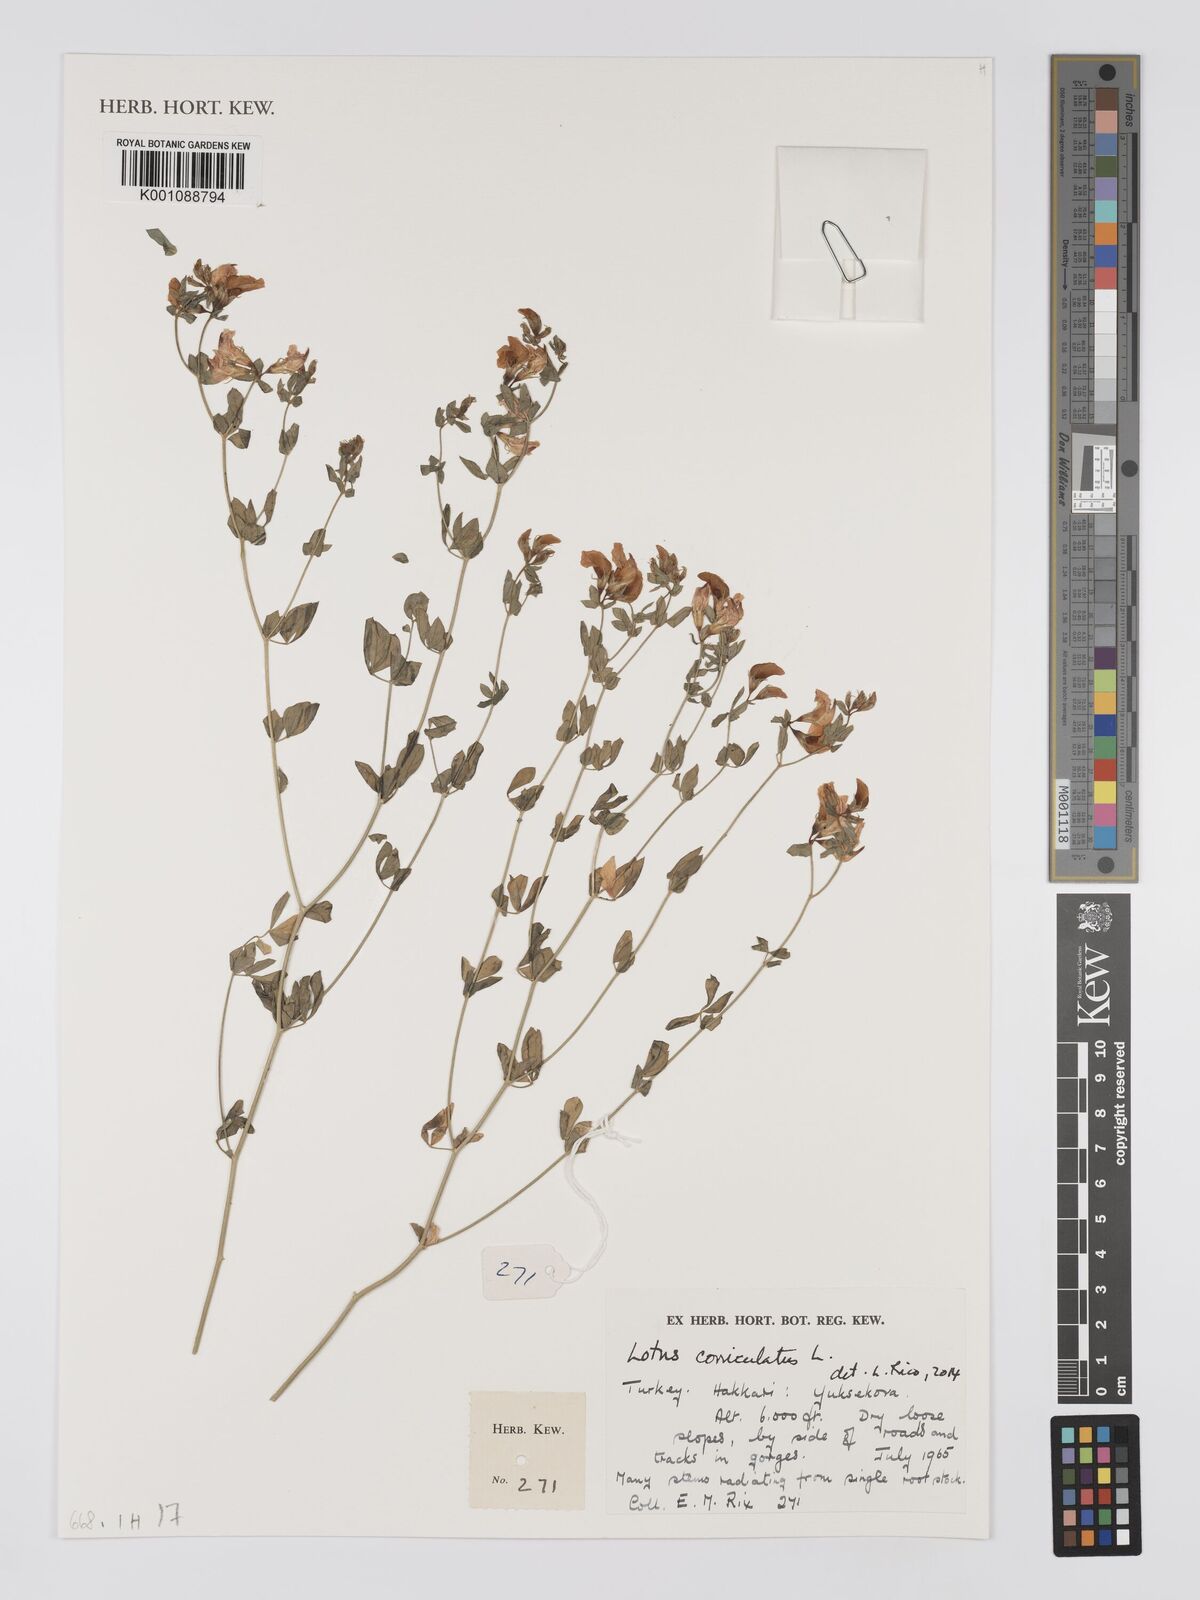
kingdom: Plantae
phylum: Tracheophyta
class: Magnoliopsida
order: Fabales
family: Fabaceae
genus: Lotus
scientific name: Lotus corniculatus
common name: Common bird's-foot-trefoil
